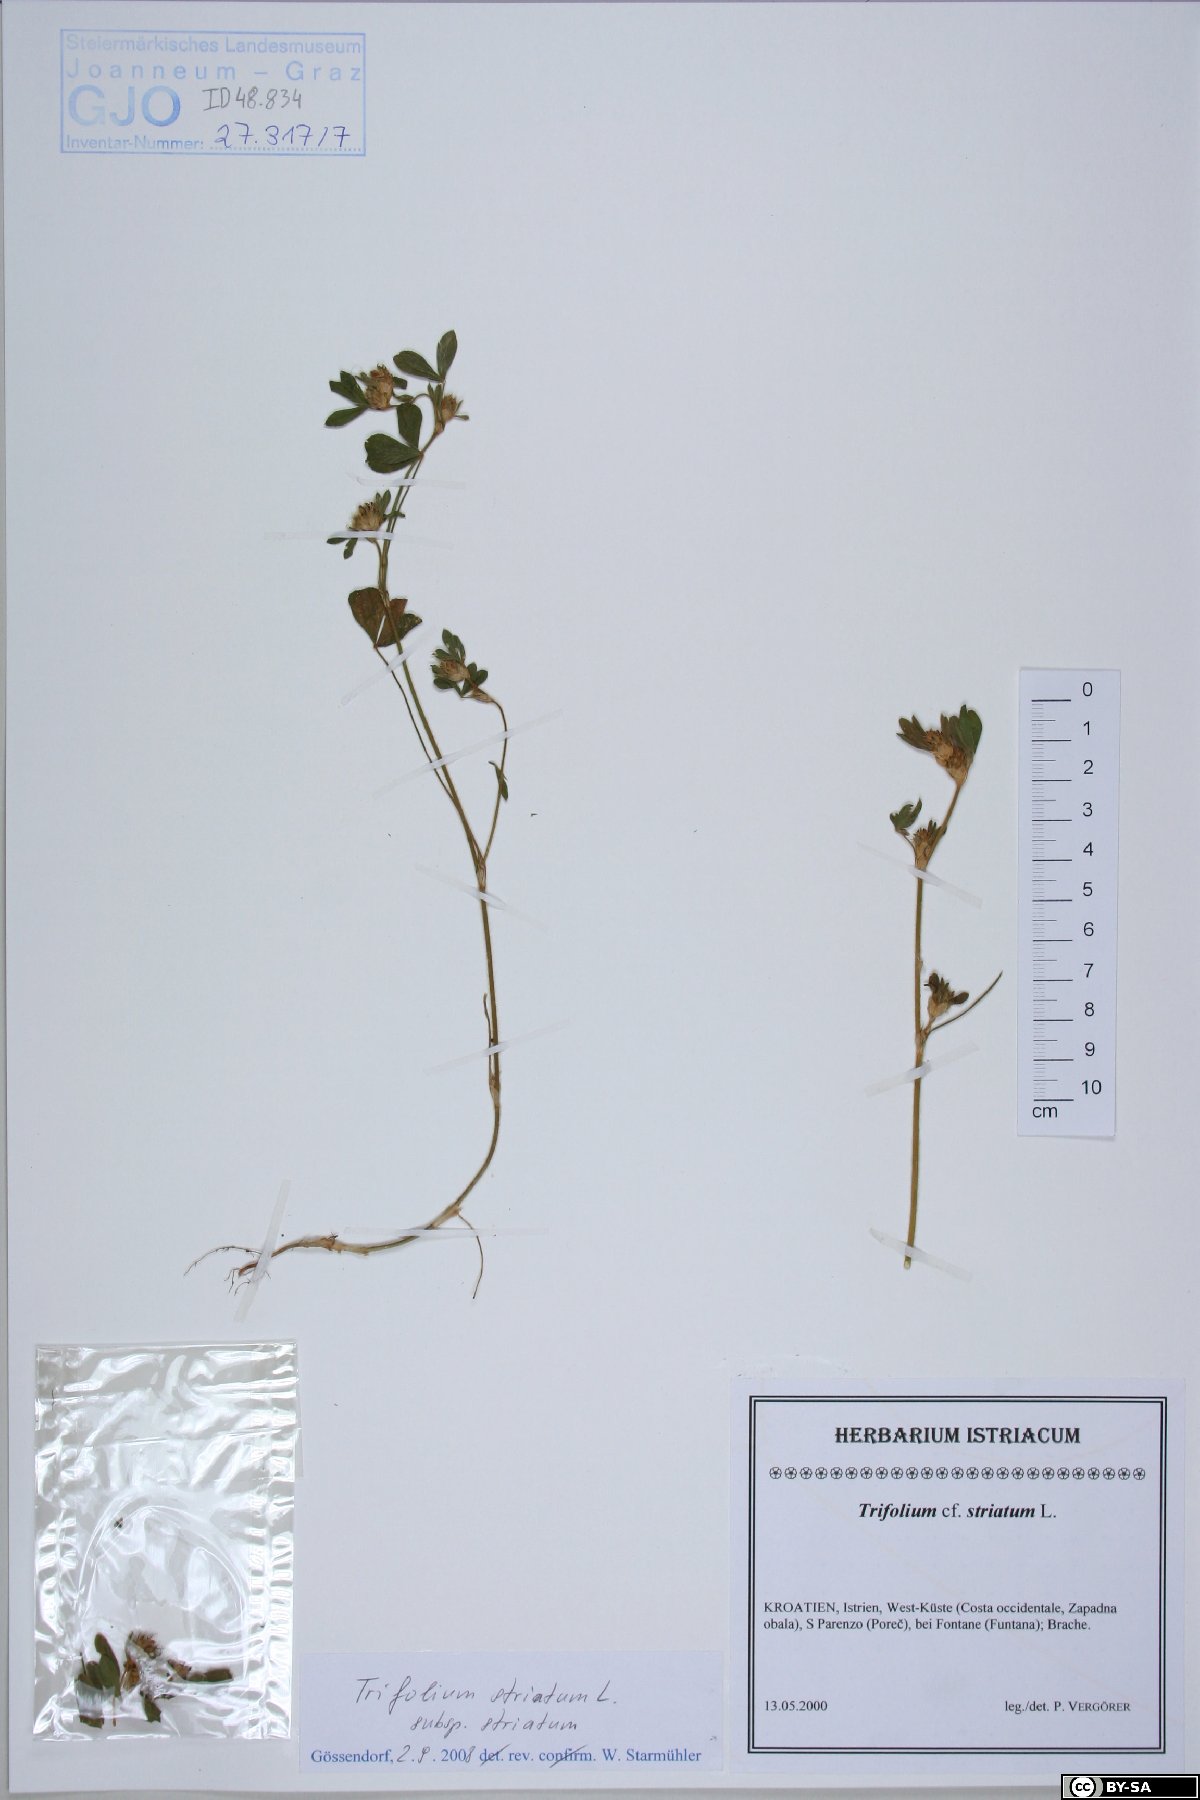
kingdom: Plantae
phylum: Tracheophyta
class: Magnoliopsida
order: Fabales
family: Fabaceae
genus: Trifolium
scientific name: Trifolium striatum
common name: Knotted clover
